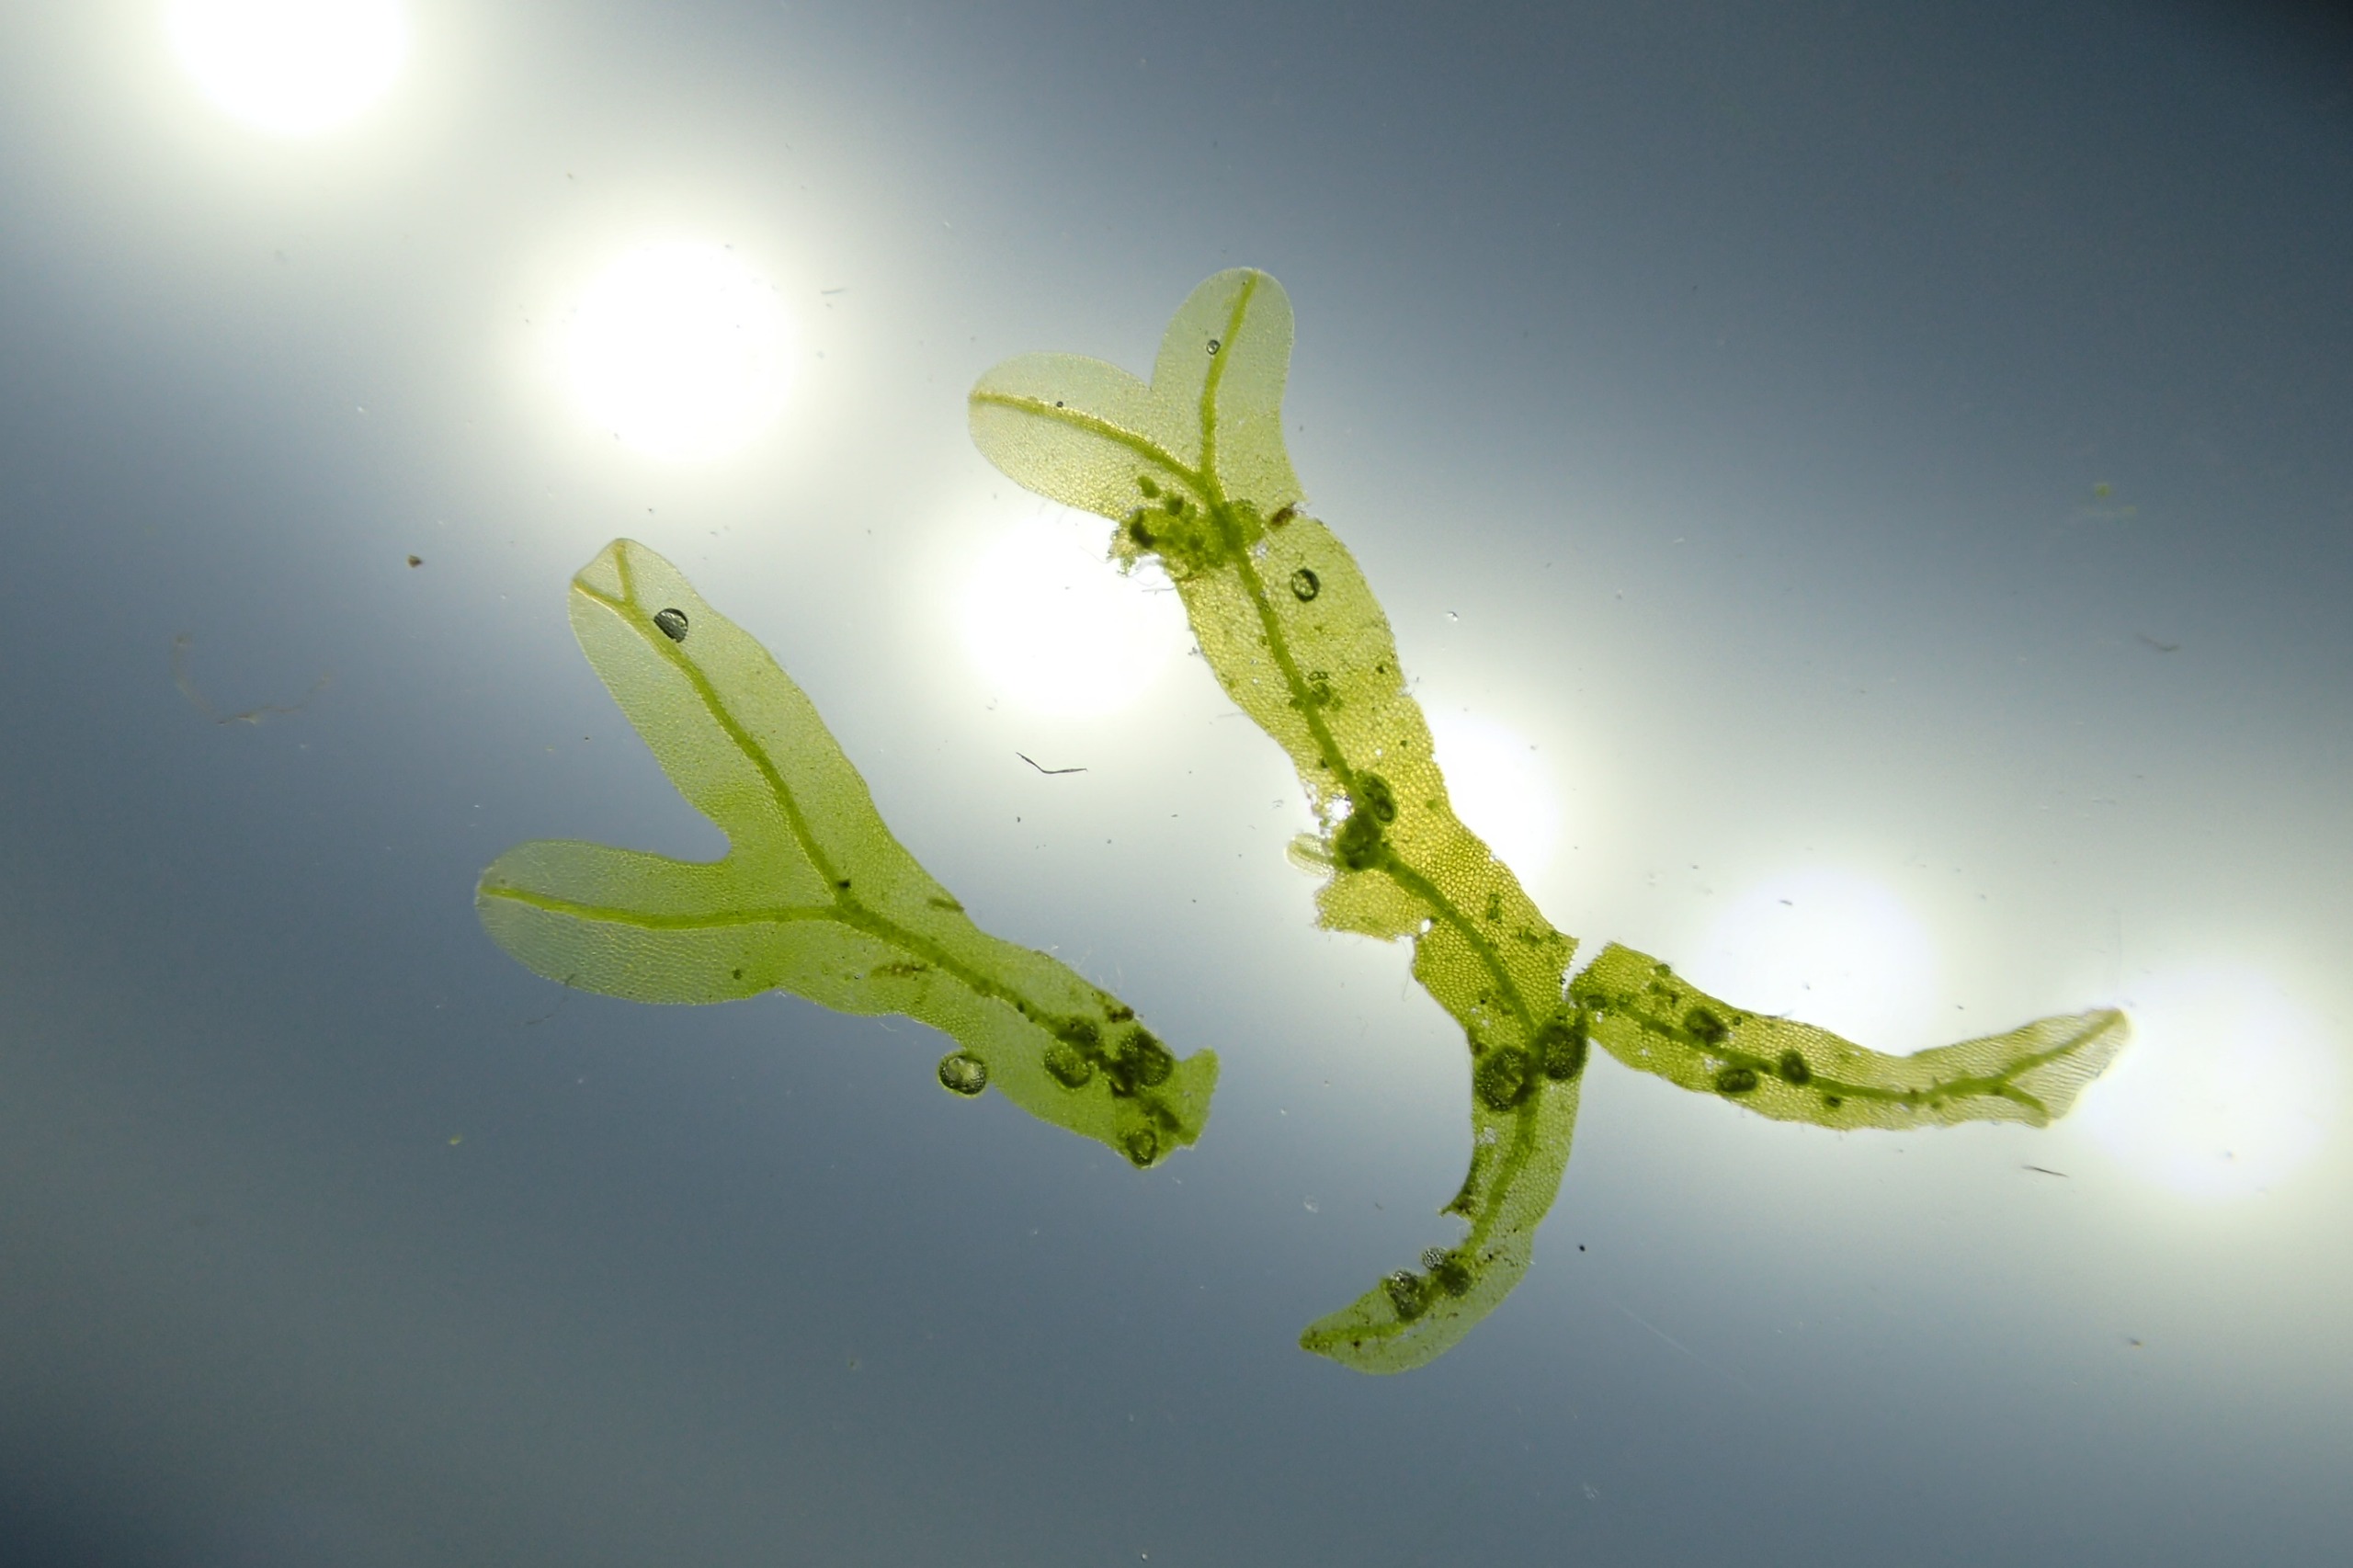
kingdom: Plantae
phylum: Marchantiophyta
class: Jungermanniopsida
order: Metzgeriales
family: Metzgeriaceae
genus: Metzgeria
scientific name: Metzgeria furcata
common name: Almindelig gaffelløv
